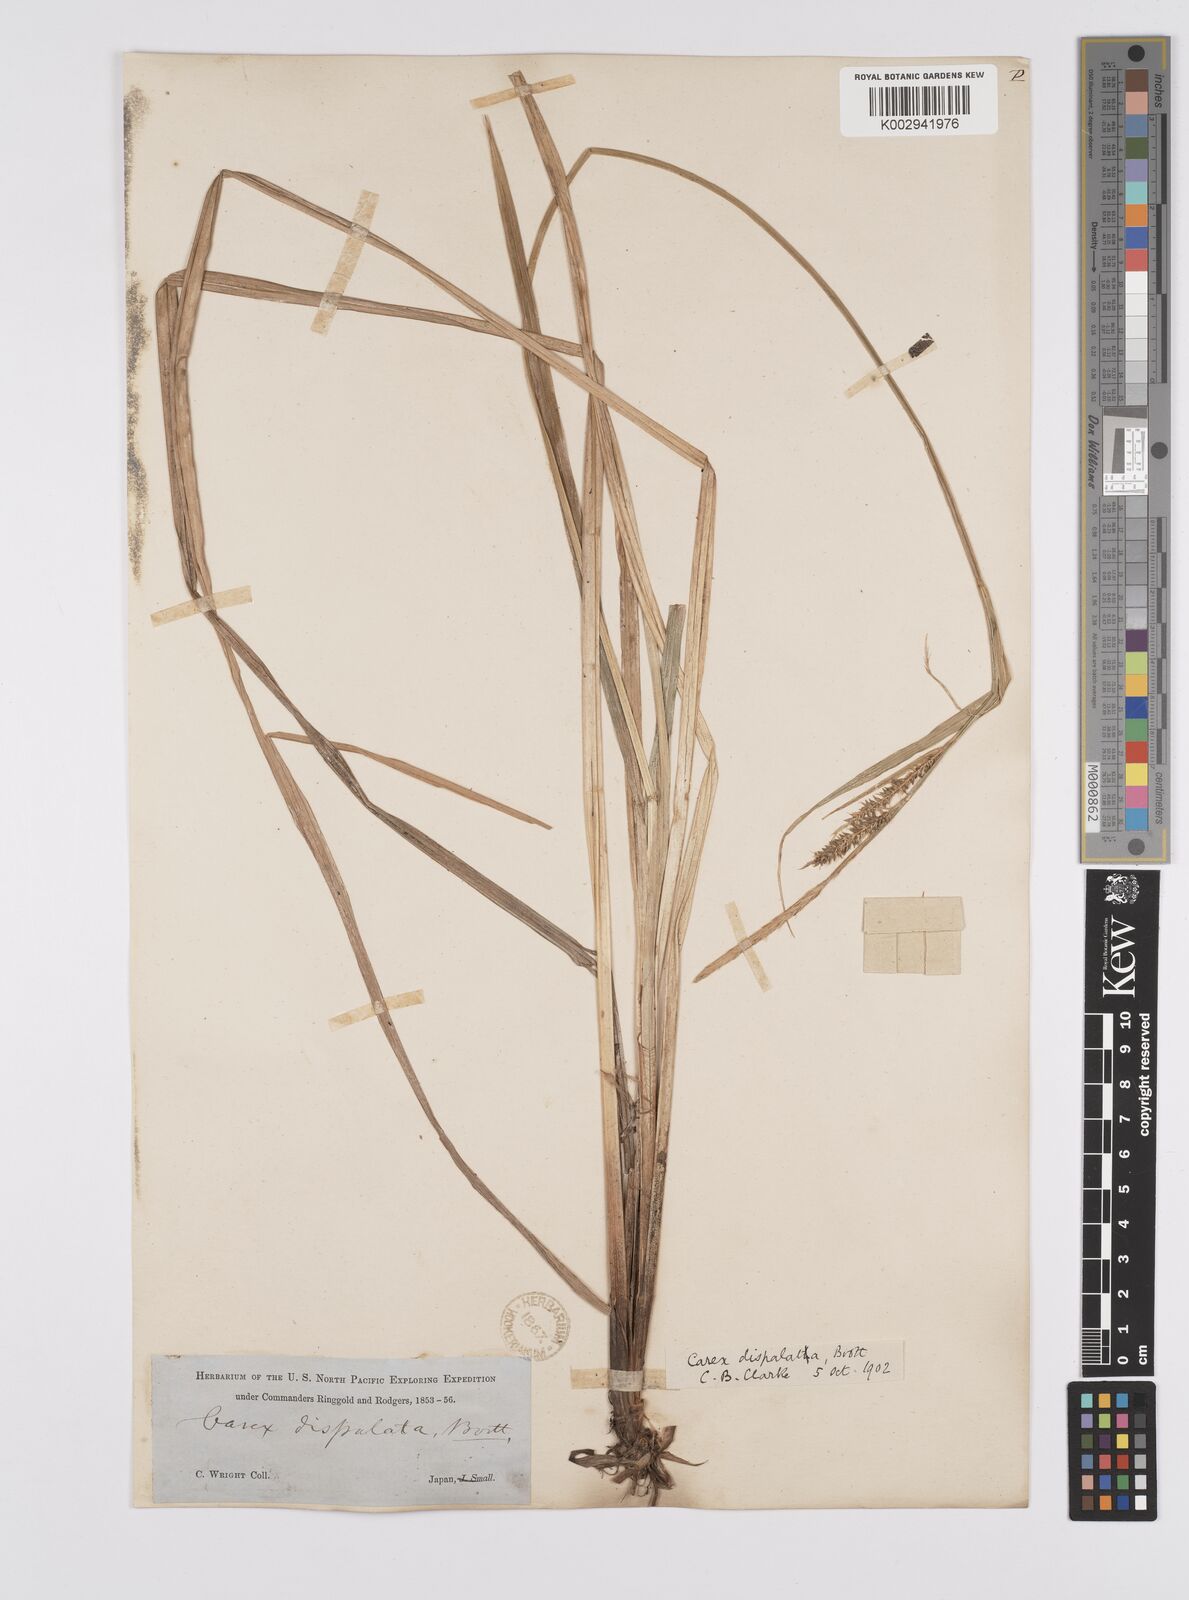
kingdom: Plantae
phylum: Tracheophyta
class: Liliopsida
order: Poales
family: Cyperaceae
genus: Carex
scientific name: Carex dispalata
